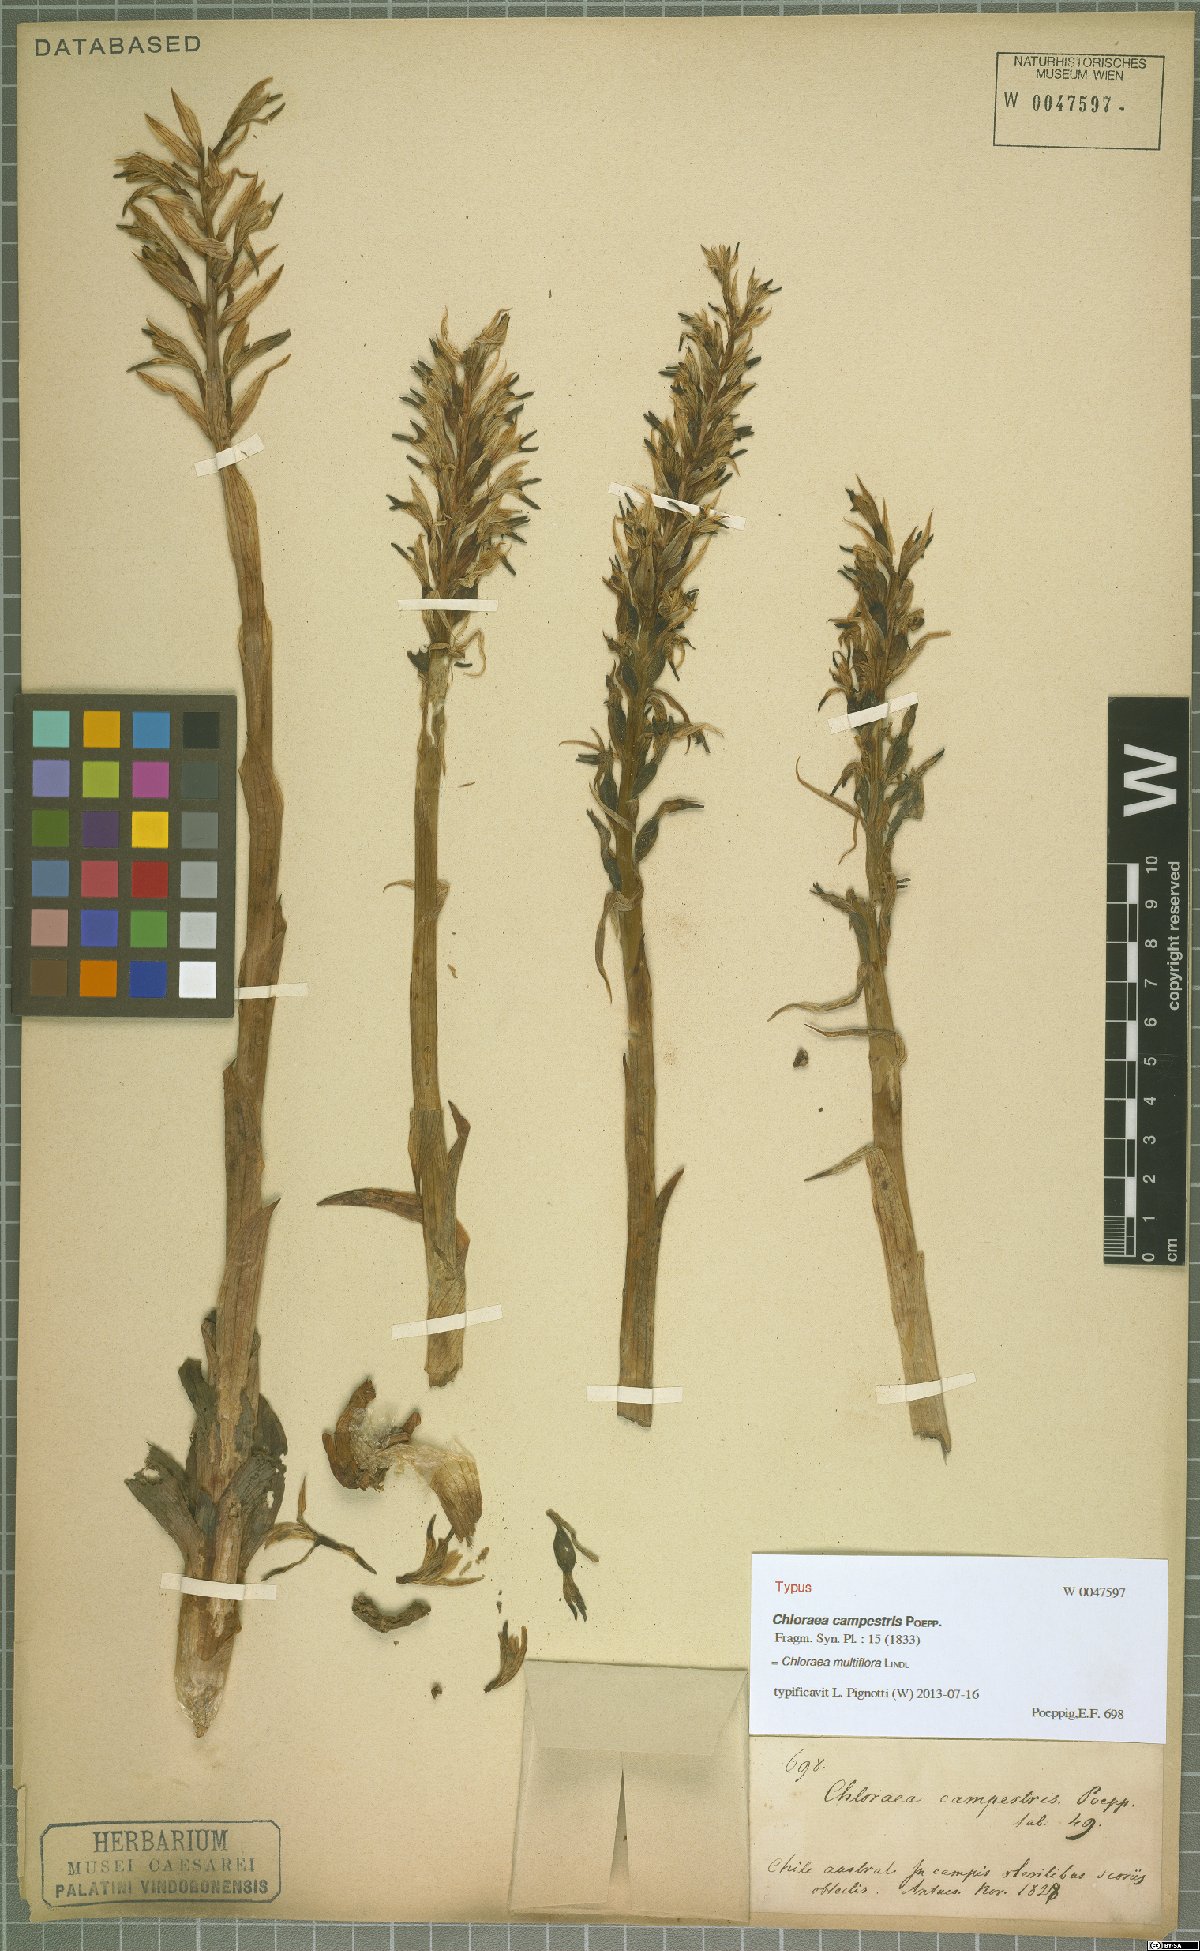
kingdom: Plantae
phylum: Tracheophyta
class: Liliopsida
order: Asparagales
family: Orchidaceae
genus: Chloraea
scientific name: Chloraea multiflora
